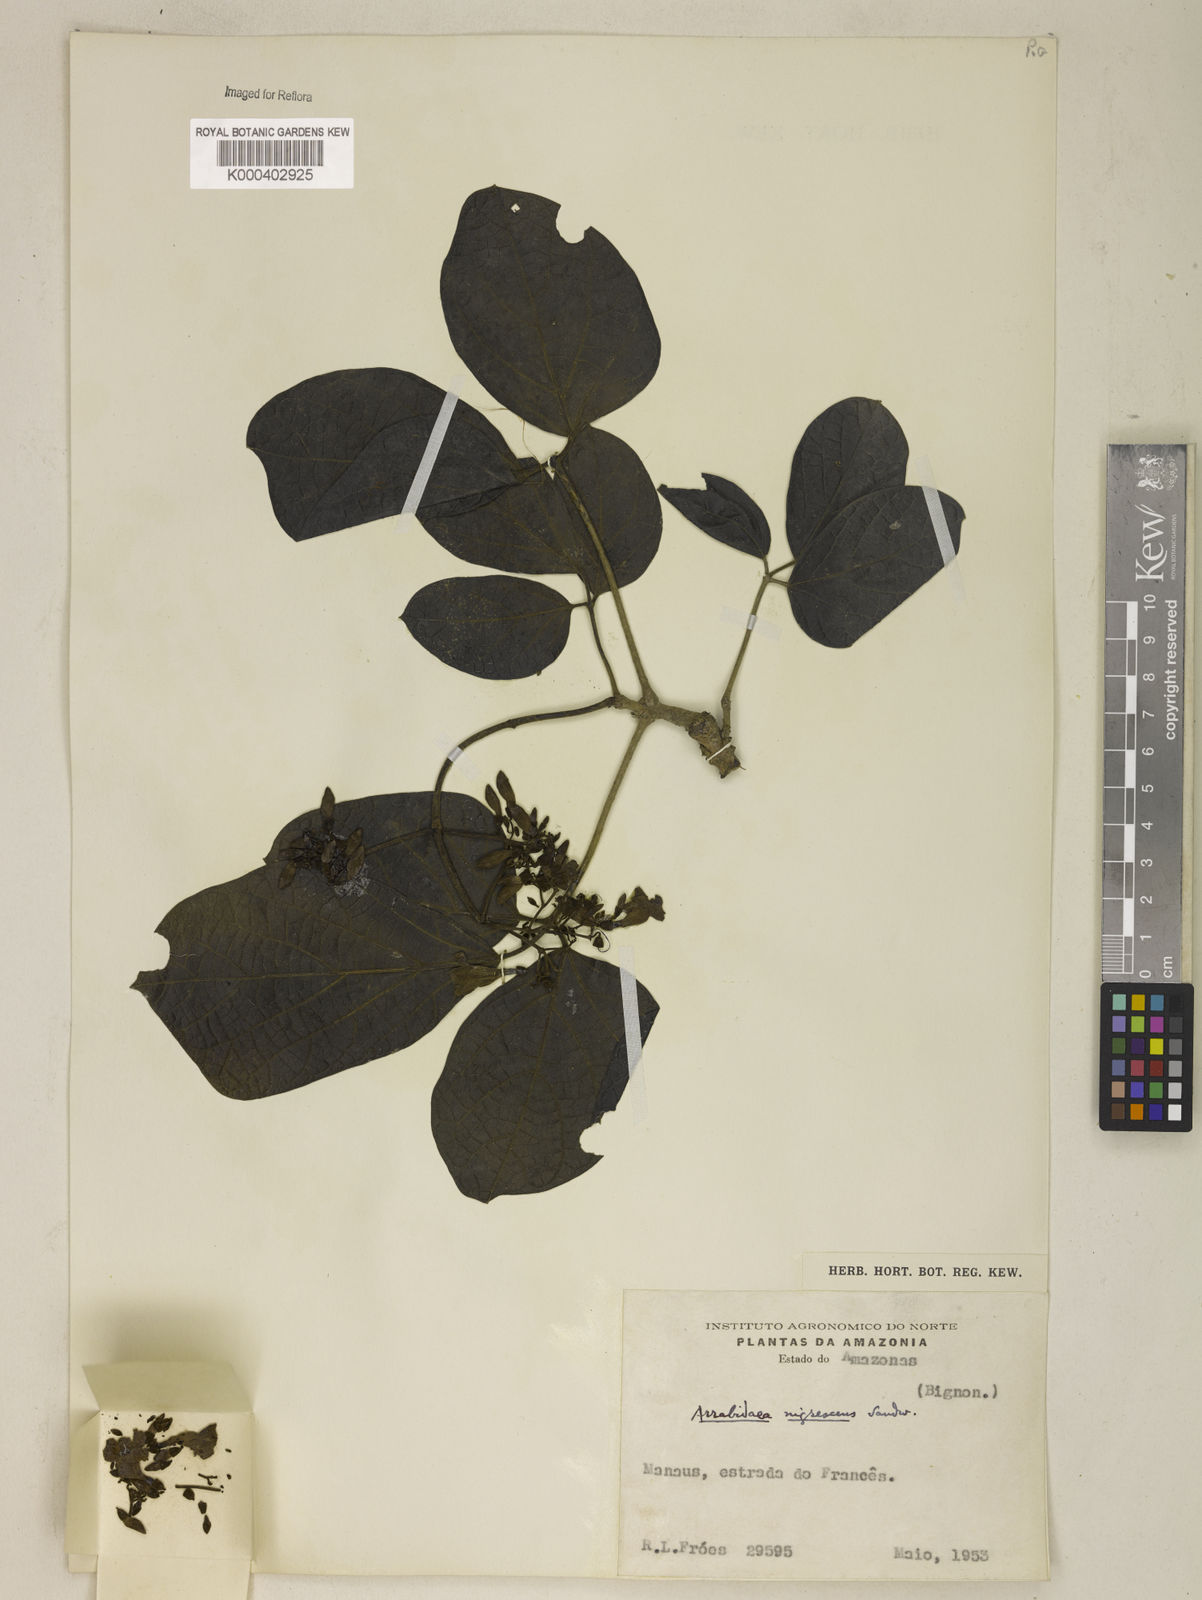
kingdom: Plantae
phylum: Tracheophyta
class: Magnoliopsida
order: Lamiales
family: Bignoniaceae
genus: Fridericia
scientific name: Fridericia nigrescens
